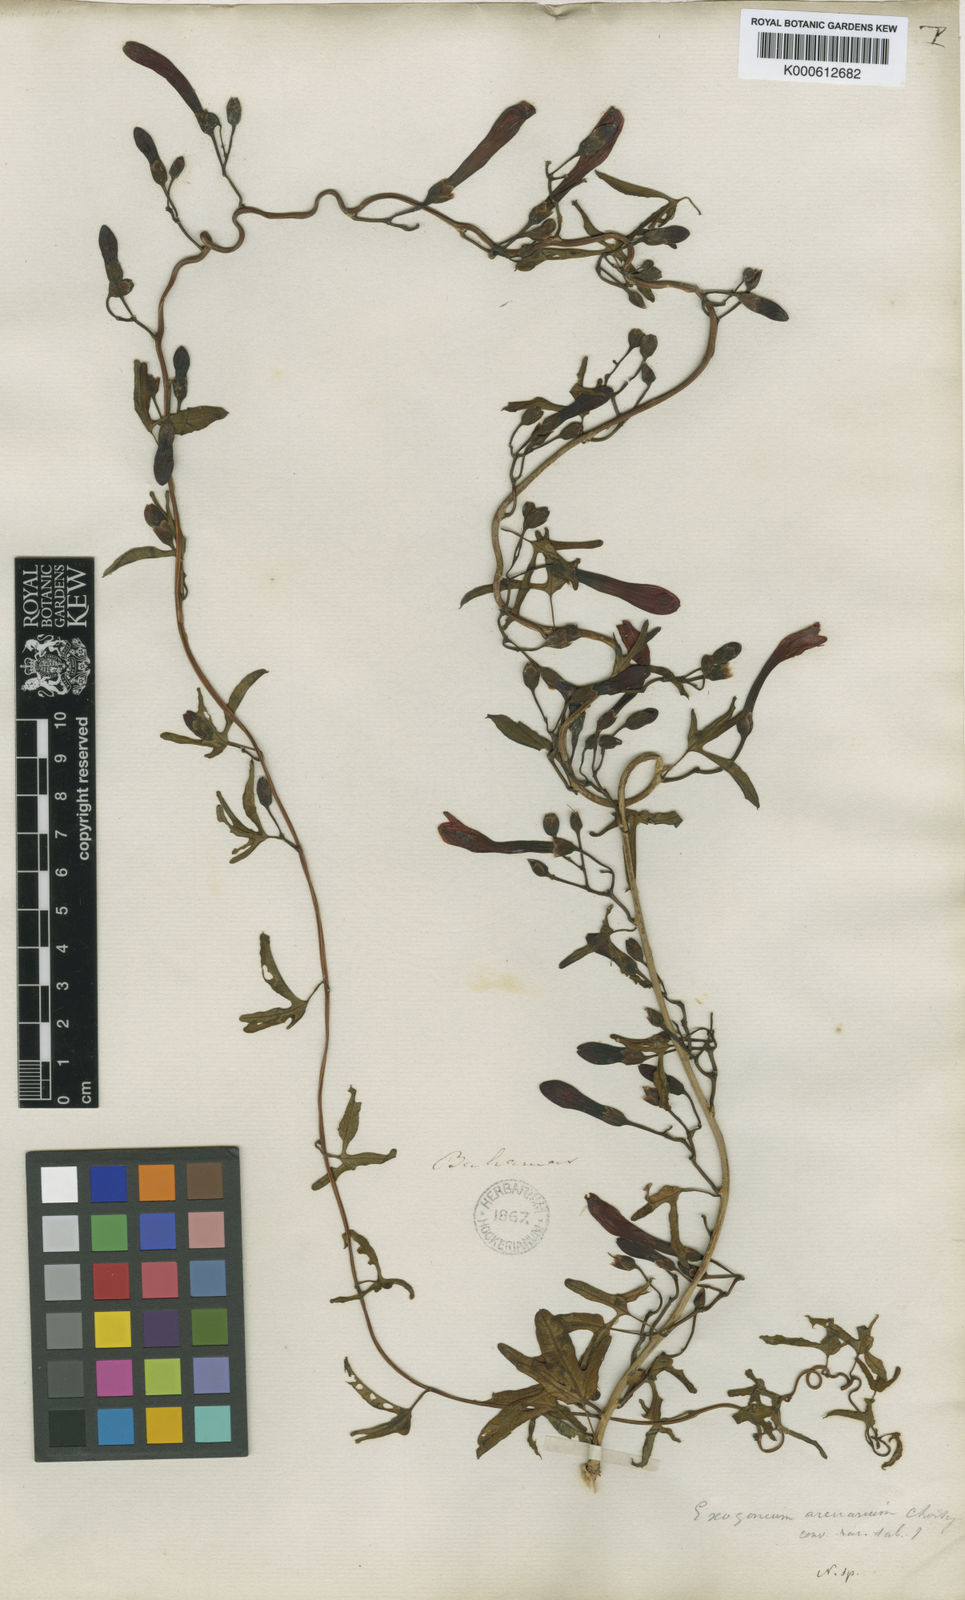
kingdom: Plantae
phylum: Tracheophyta
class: Magnoliopsida
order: Solanales
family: Convolvulaceae
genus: Ipomoea
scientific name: Ipomoea microdactyla
